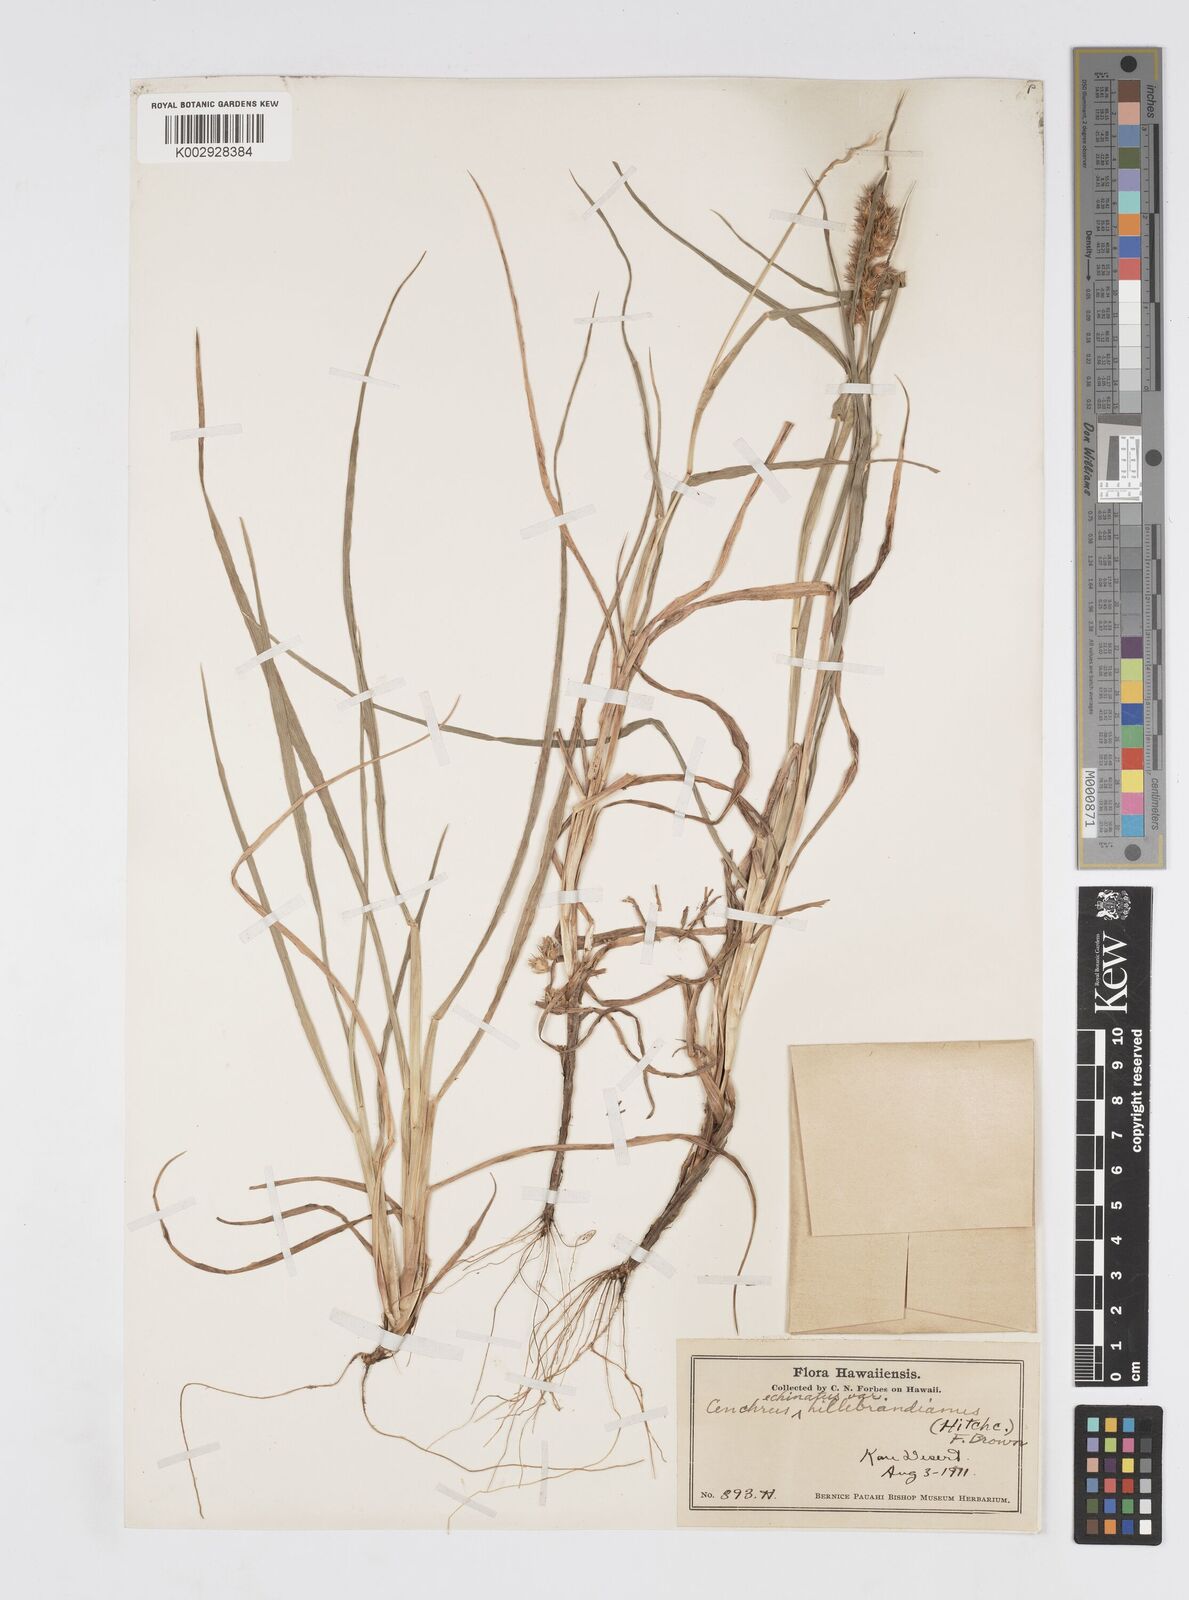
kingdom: Plantae
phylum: Tracheophyta
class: Liliopsida
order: Poales
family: Poaceae
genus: Cenchrus
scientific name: Cenchrus echinatus
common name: Southern sandbur
